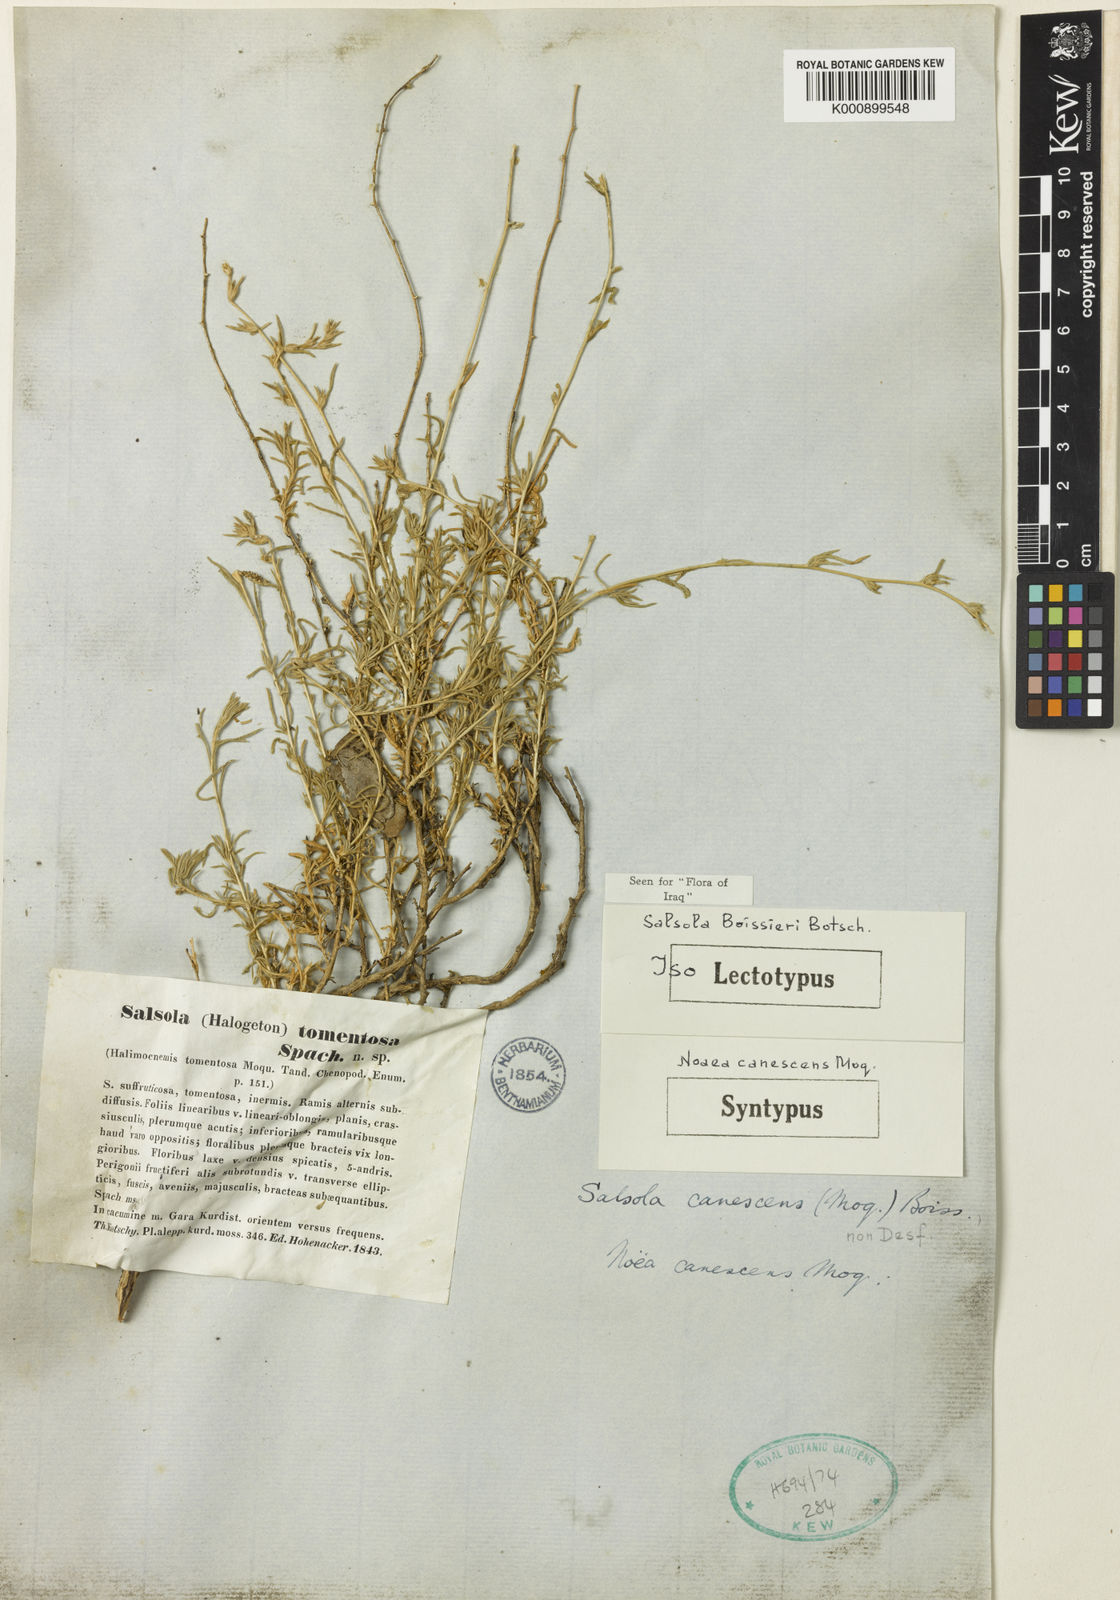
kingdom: Plantae
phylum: Tracheophyta
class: Magnoliopsida
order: Caryophyllales
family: Amaranthaceae
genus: Salsola
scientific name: Salsola
